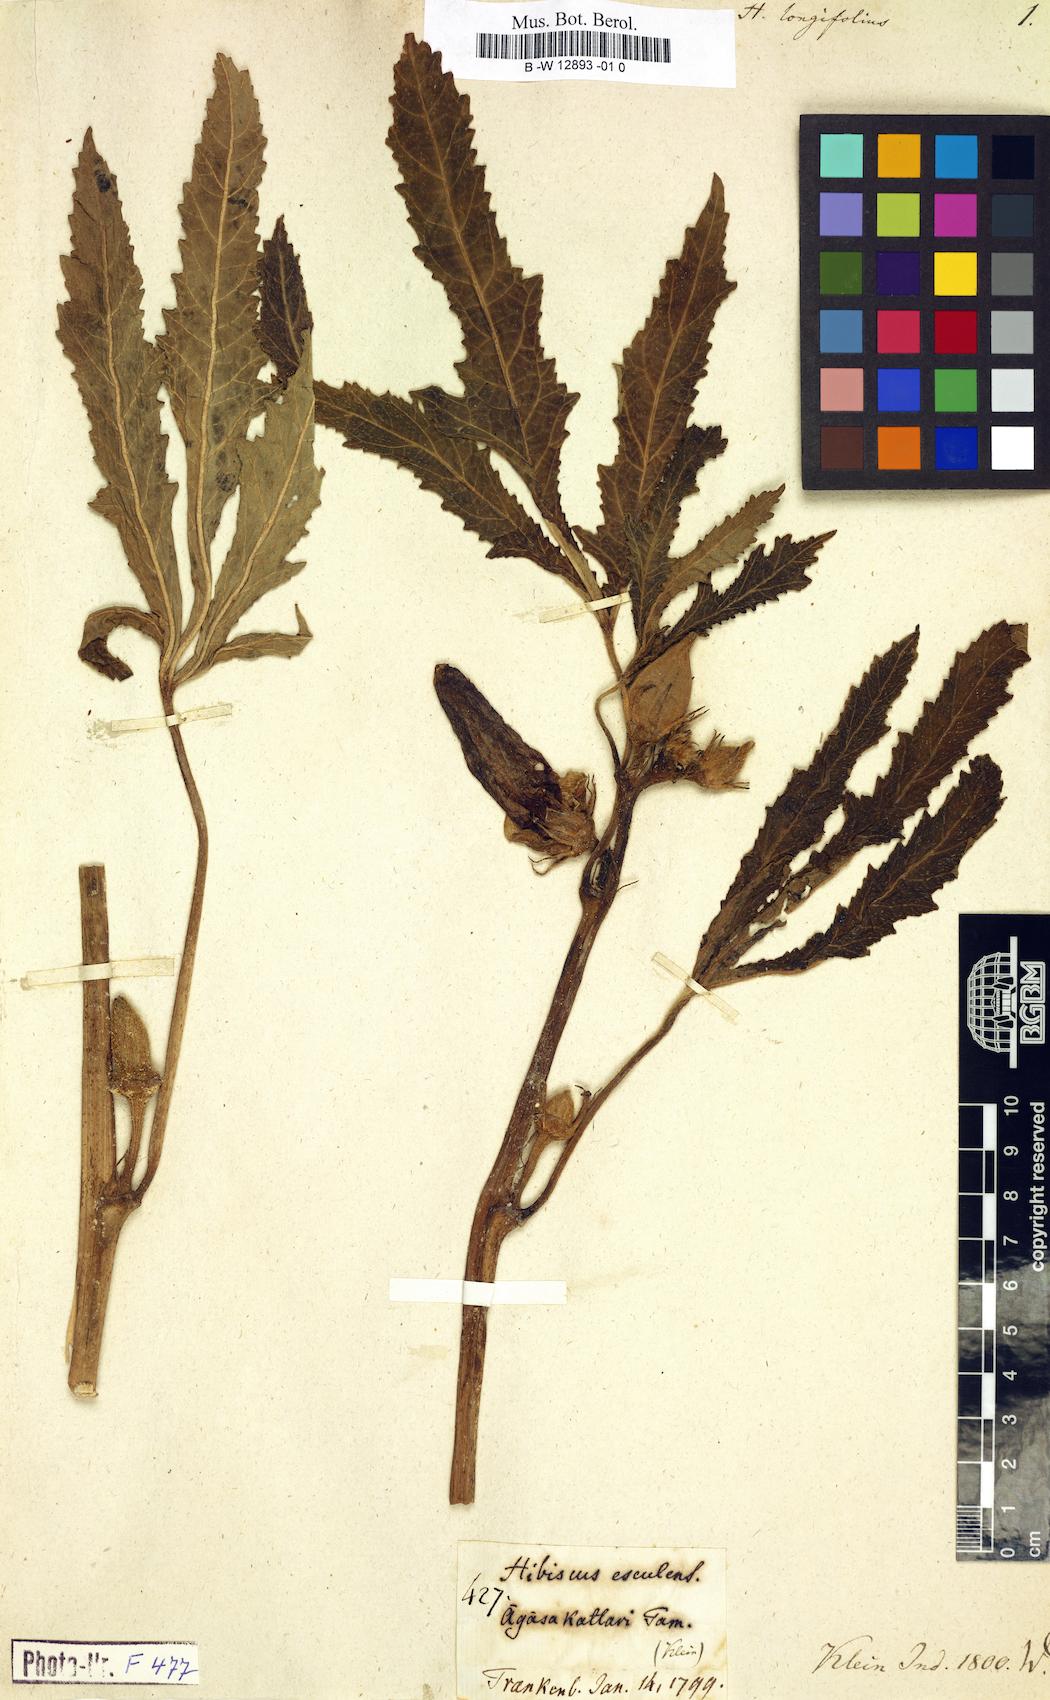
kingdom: Plantae
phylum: Tracheophyta
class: Magnoliopsida
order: Malvales
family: Malvaceae
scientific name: Malvaceae
